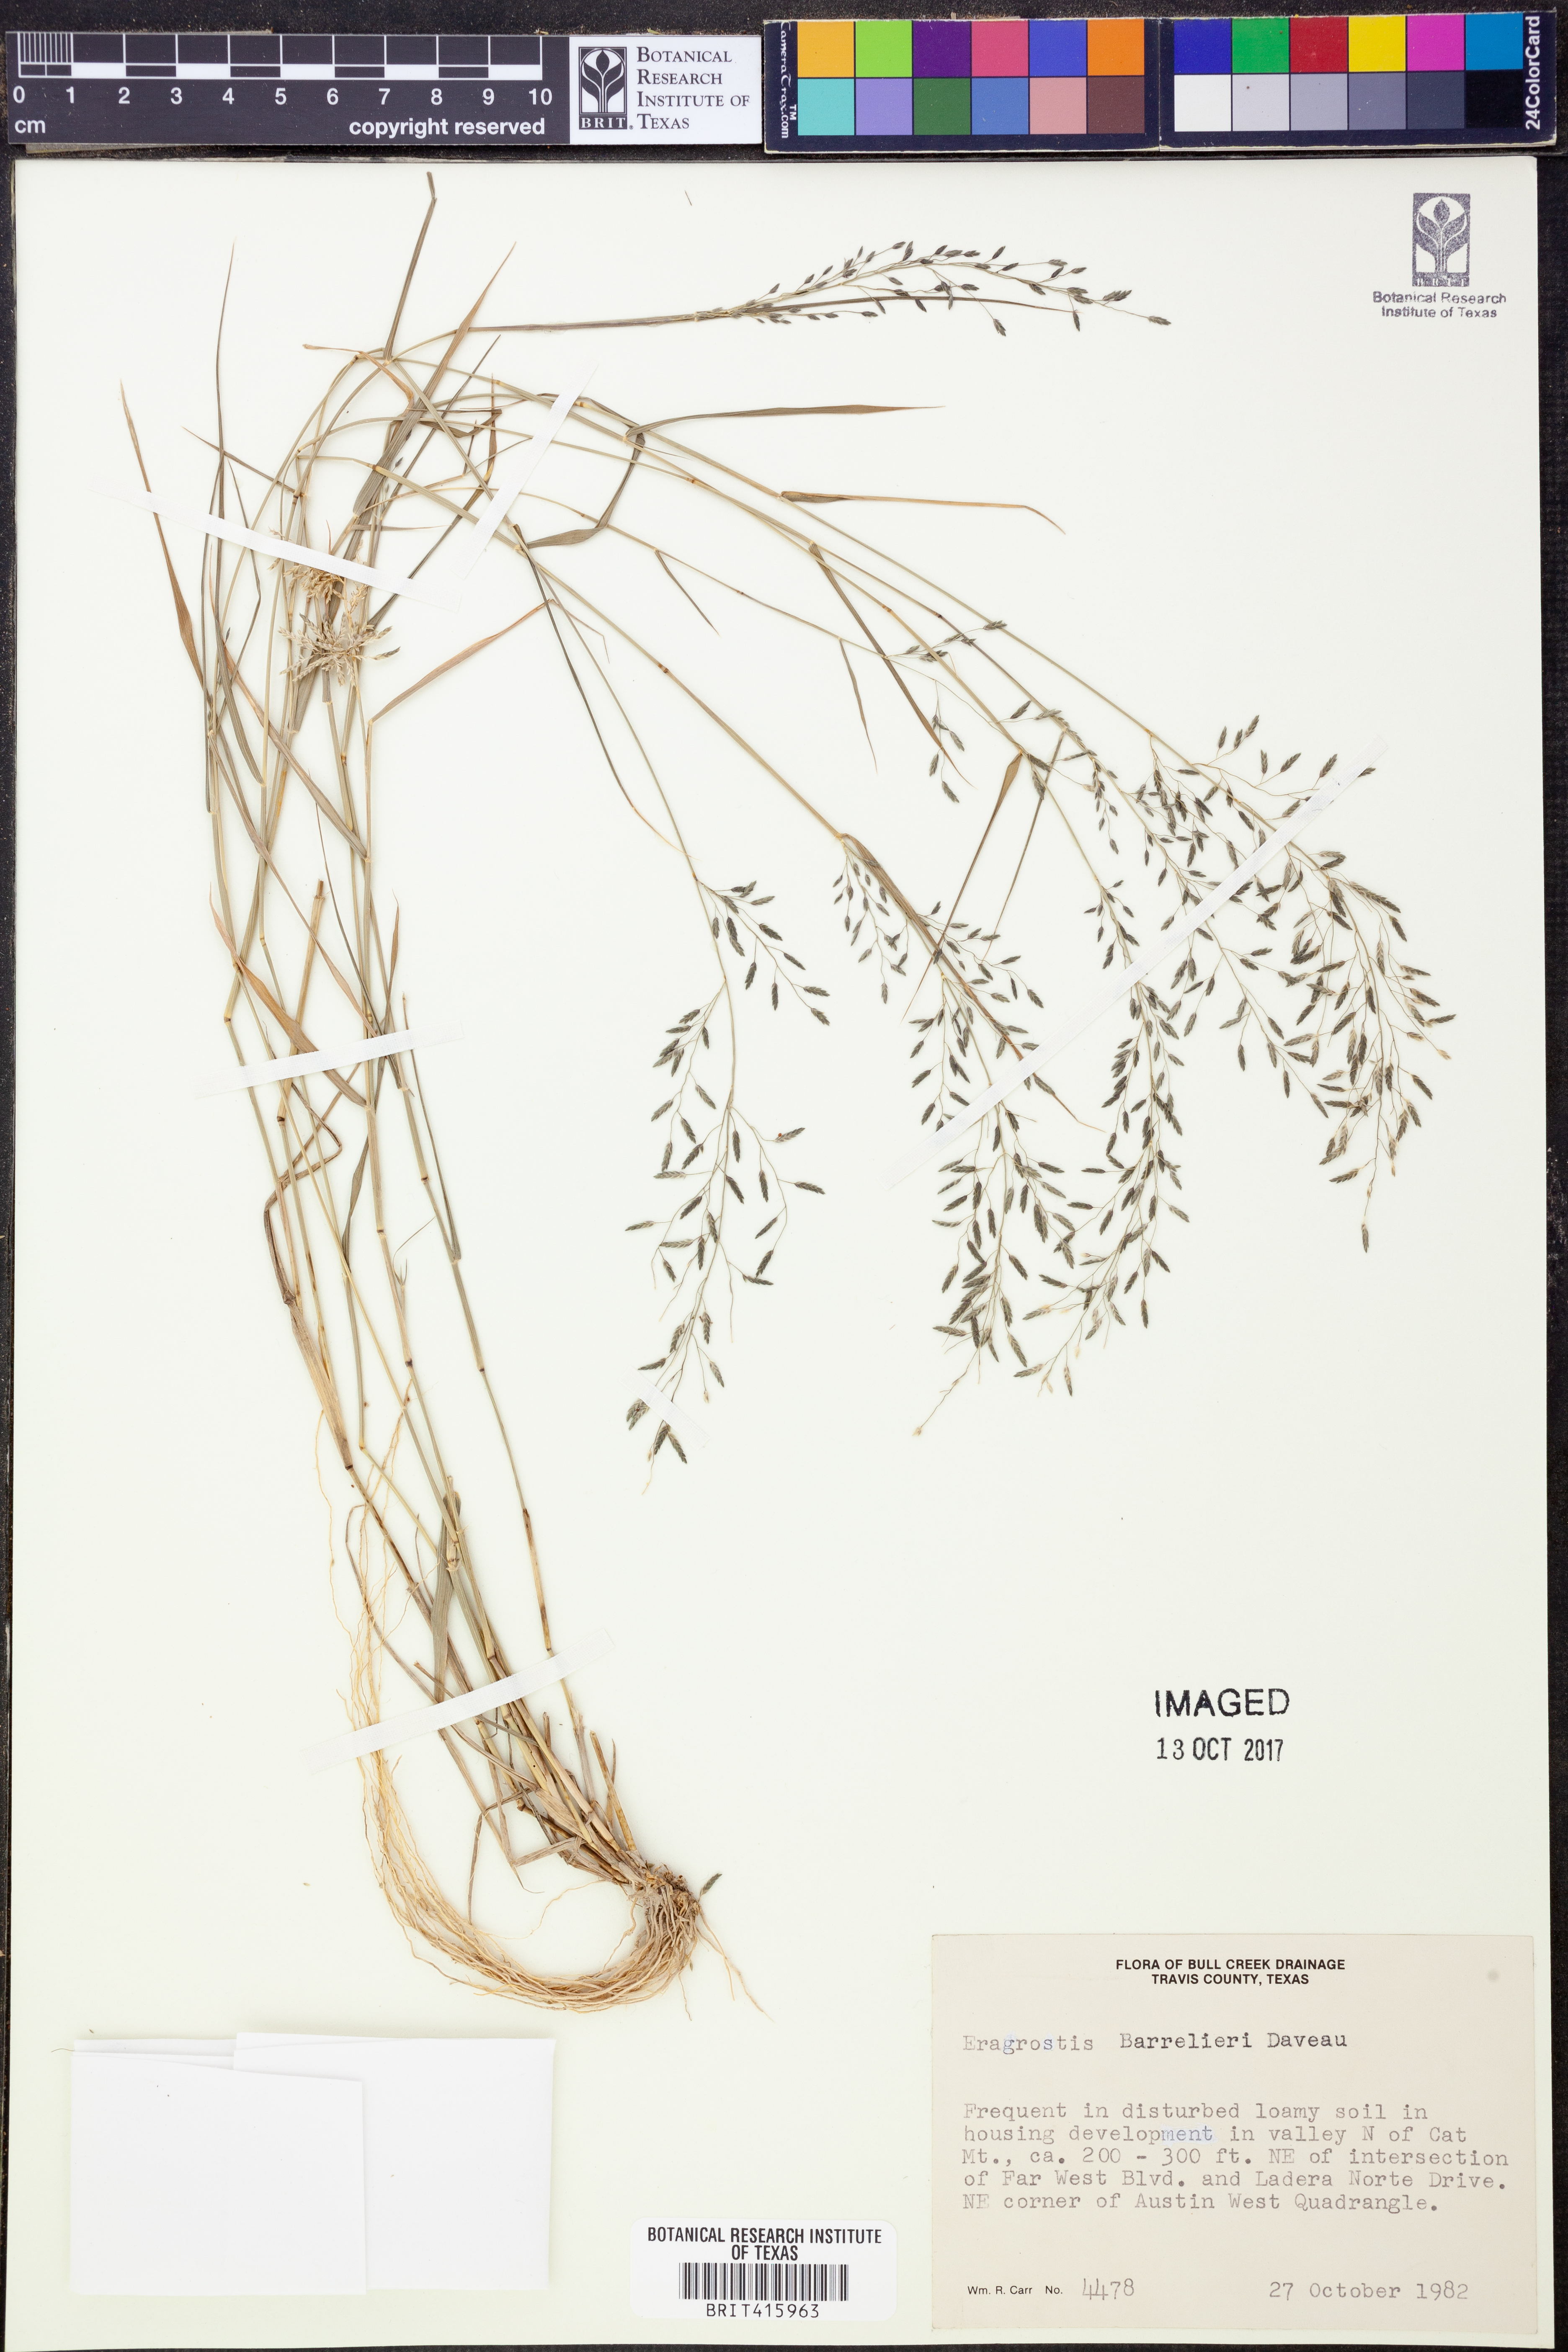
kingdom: Plantae
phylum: Tracheophyta
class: Liliopsida
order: Poales
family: Poaceae
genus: Eragrostis
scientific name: Eragrostis barrelieri
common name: Mediterranean lovegrass
